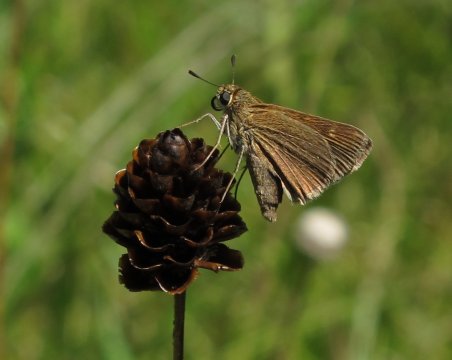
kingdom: Animalia
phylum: Arthropoda
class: Insecta
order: Lepidoptera
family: Hesperiidae
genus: Polites
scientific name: Polites themistocles
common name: Tawny-edged Skipper
